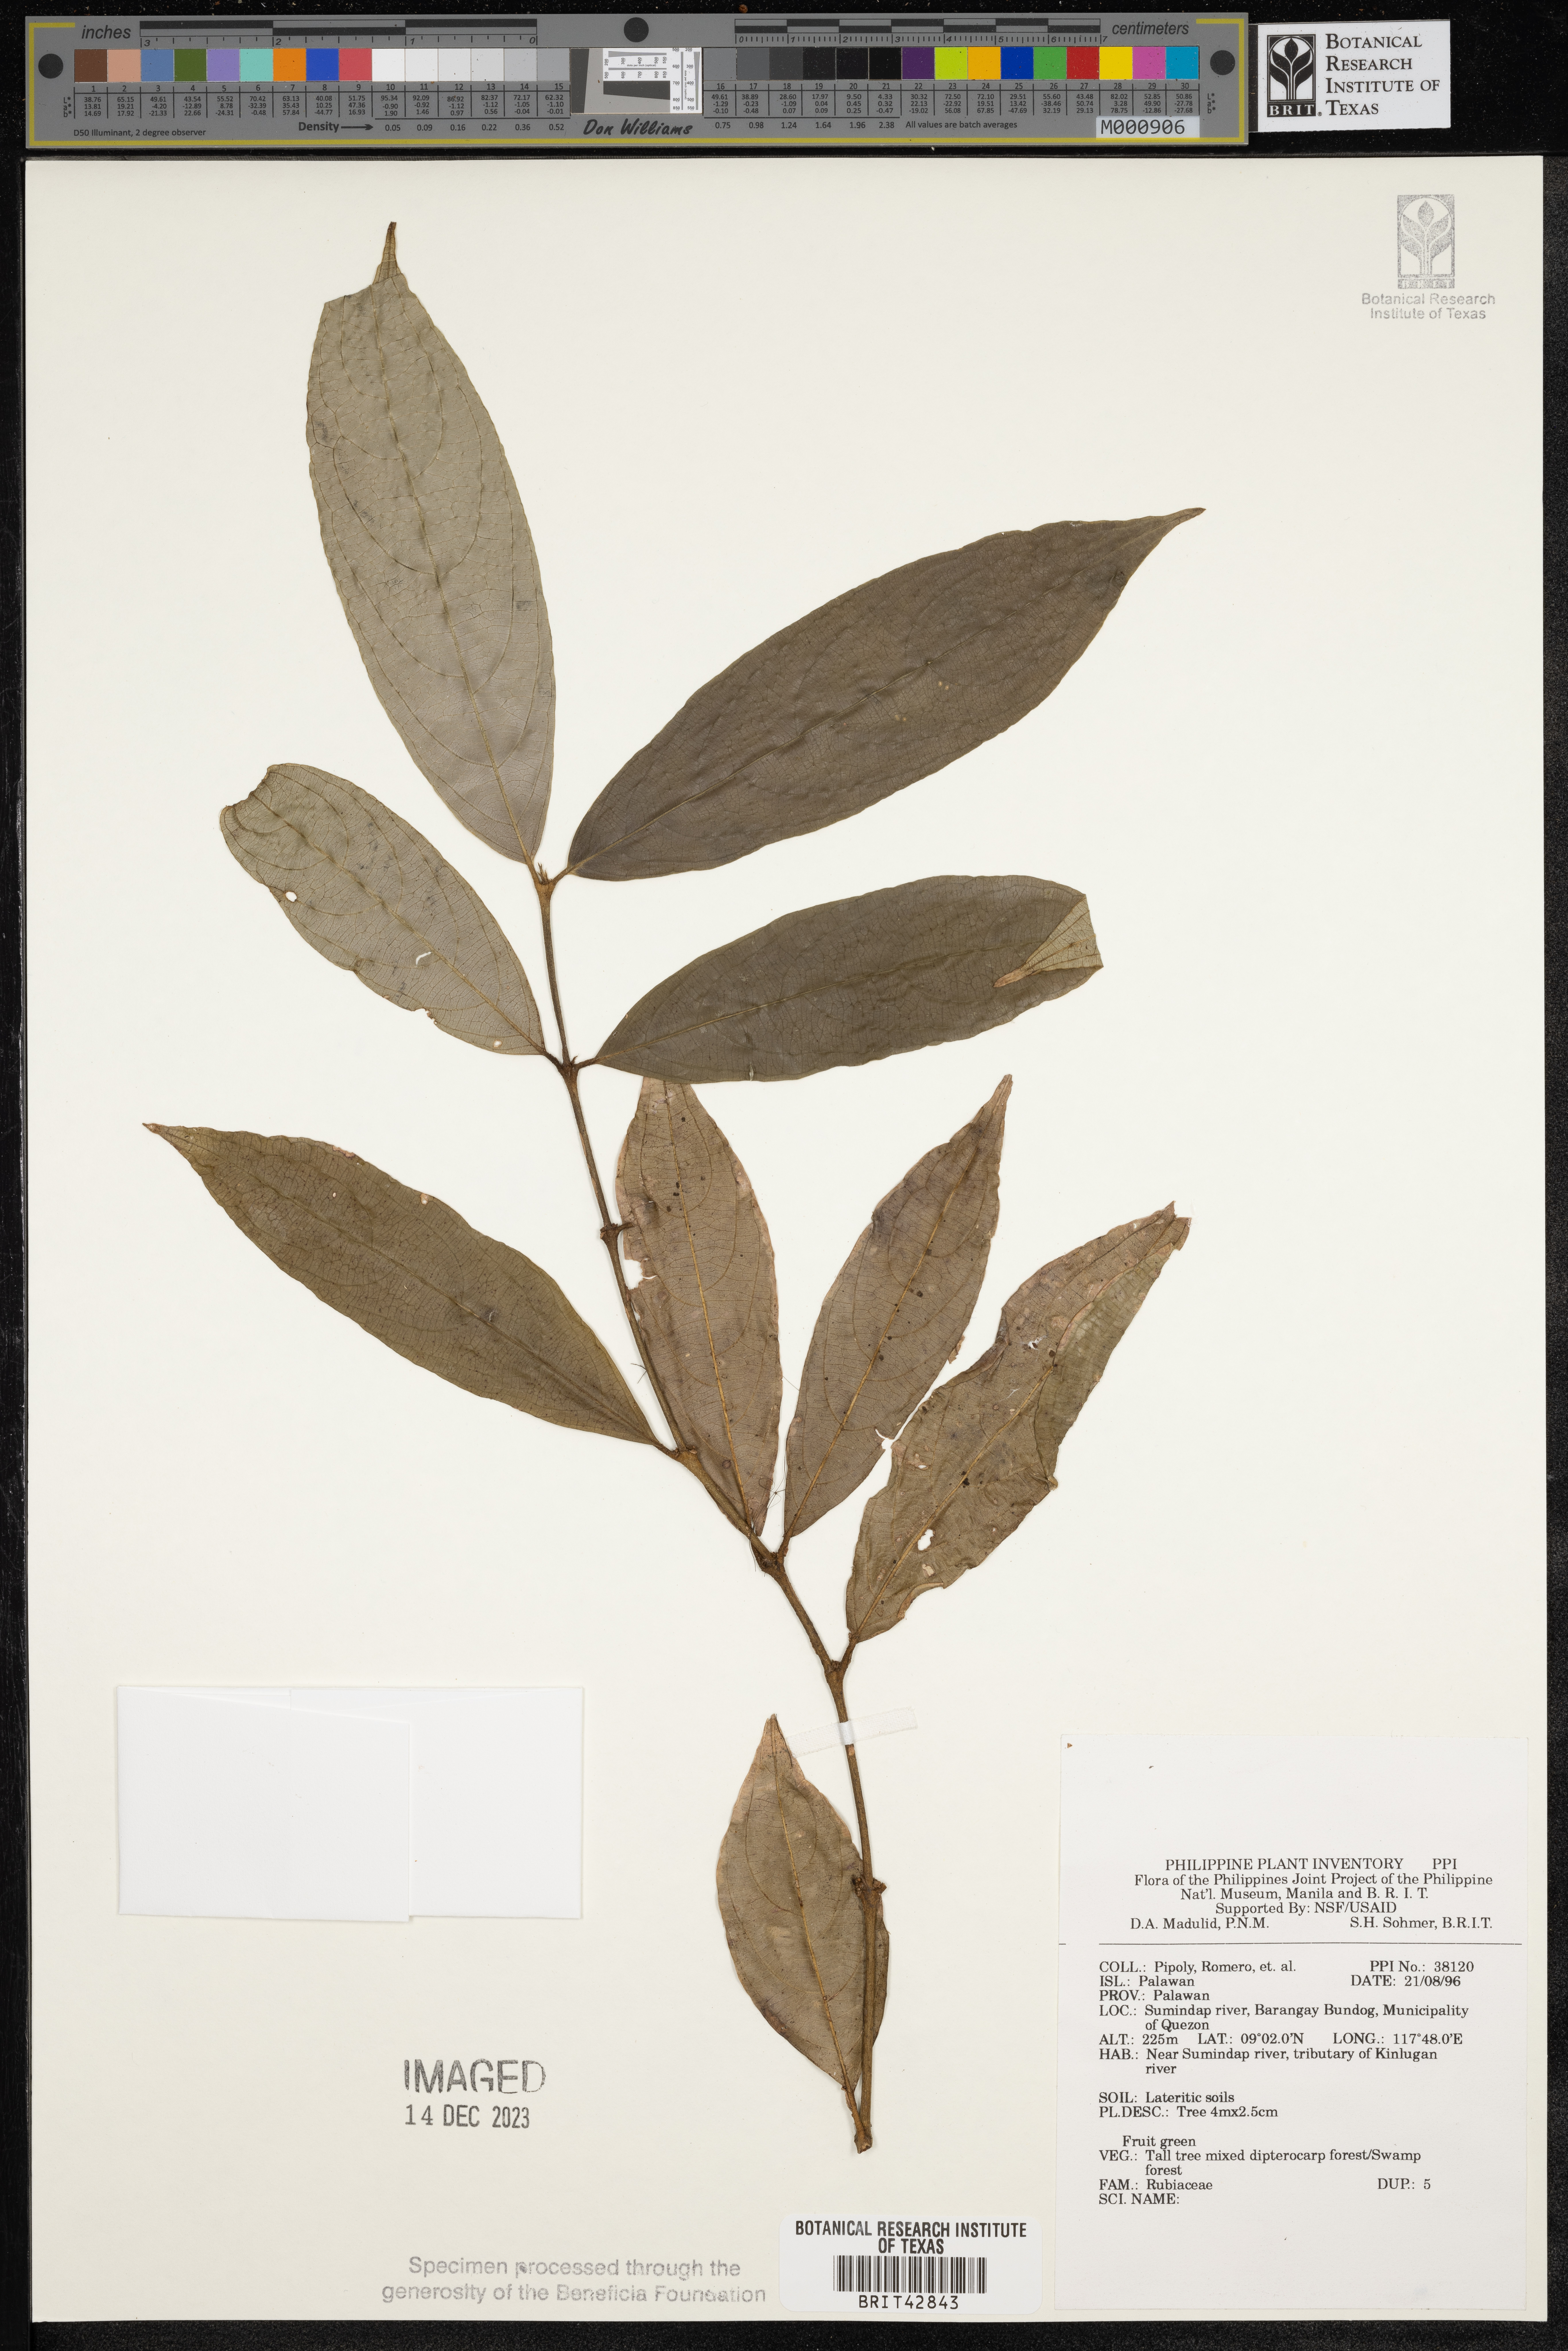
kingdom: Plantae
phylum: Tracheophyta
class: Magnoliopsida
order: Gentianales
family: Rubiaceae
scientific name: Rubiaceae
